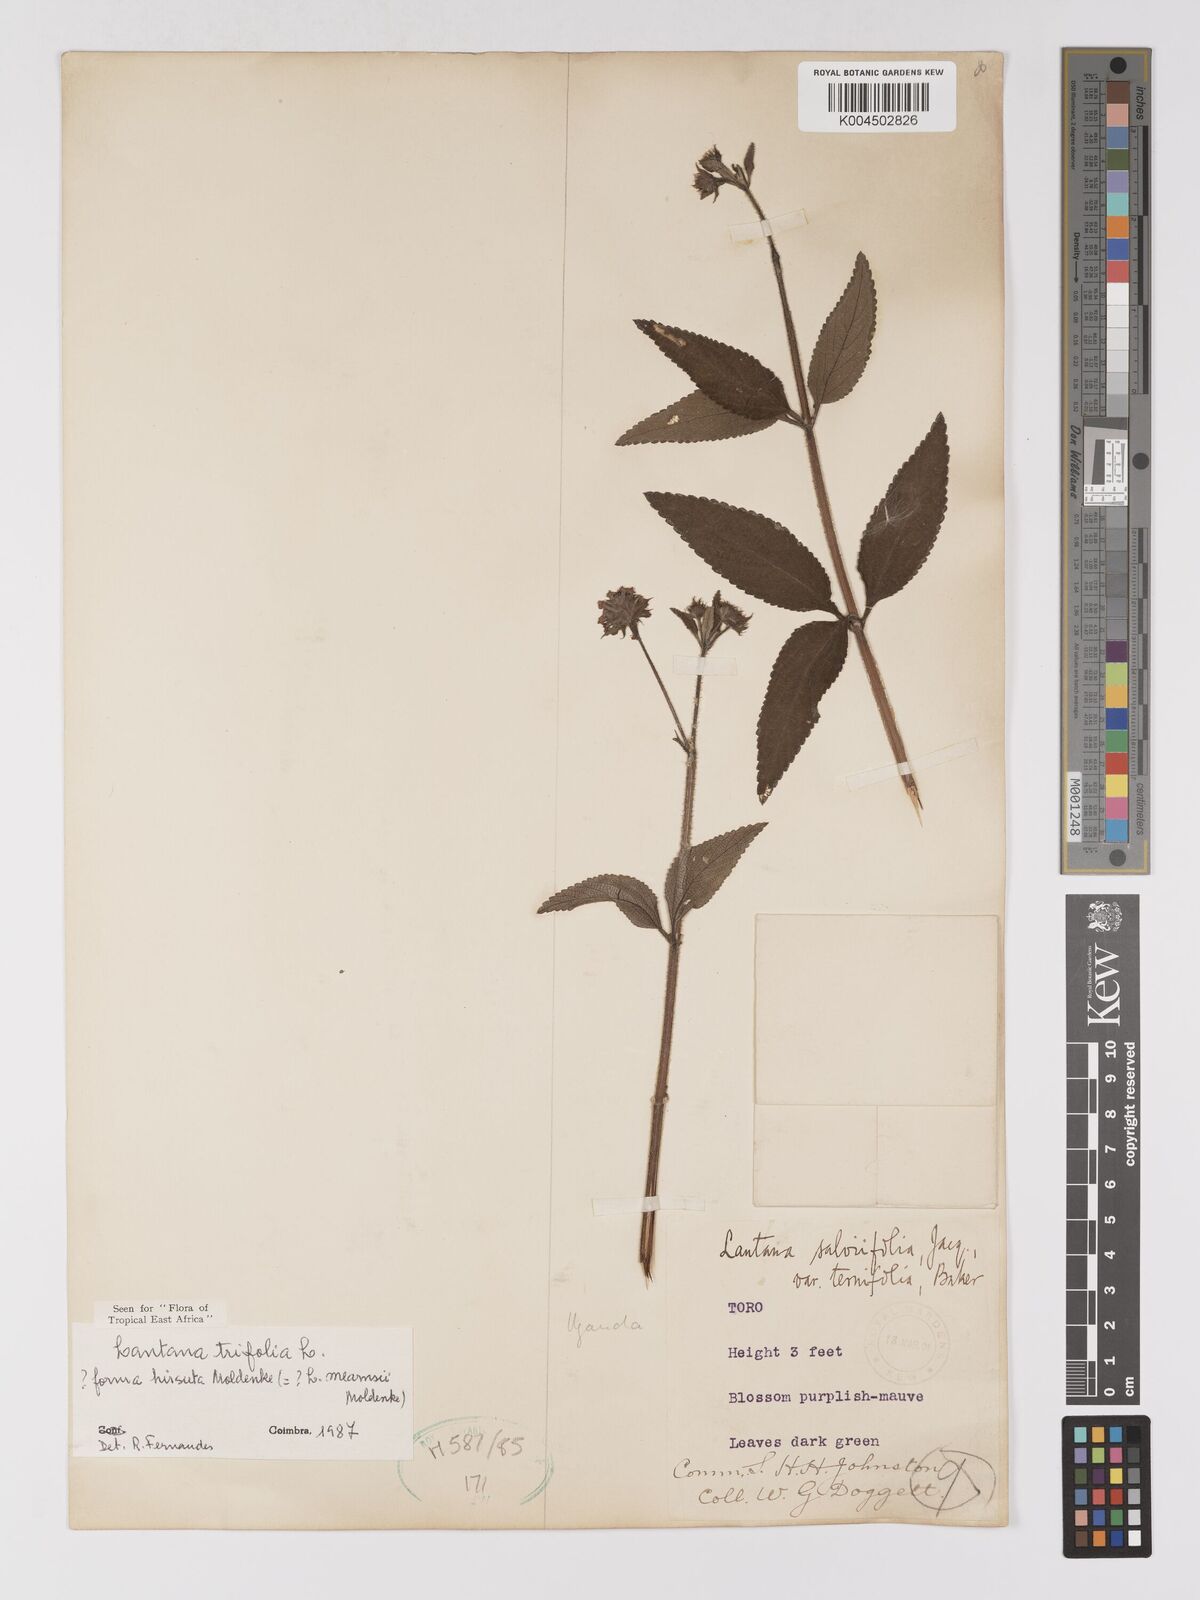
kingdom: Plantae
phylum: Tracheophyta
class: Magnoliopsida
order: Lamiales
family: Verbenaceae
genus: Lantana
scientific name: Lantana trifolia
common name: Sweet-sage
